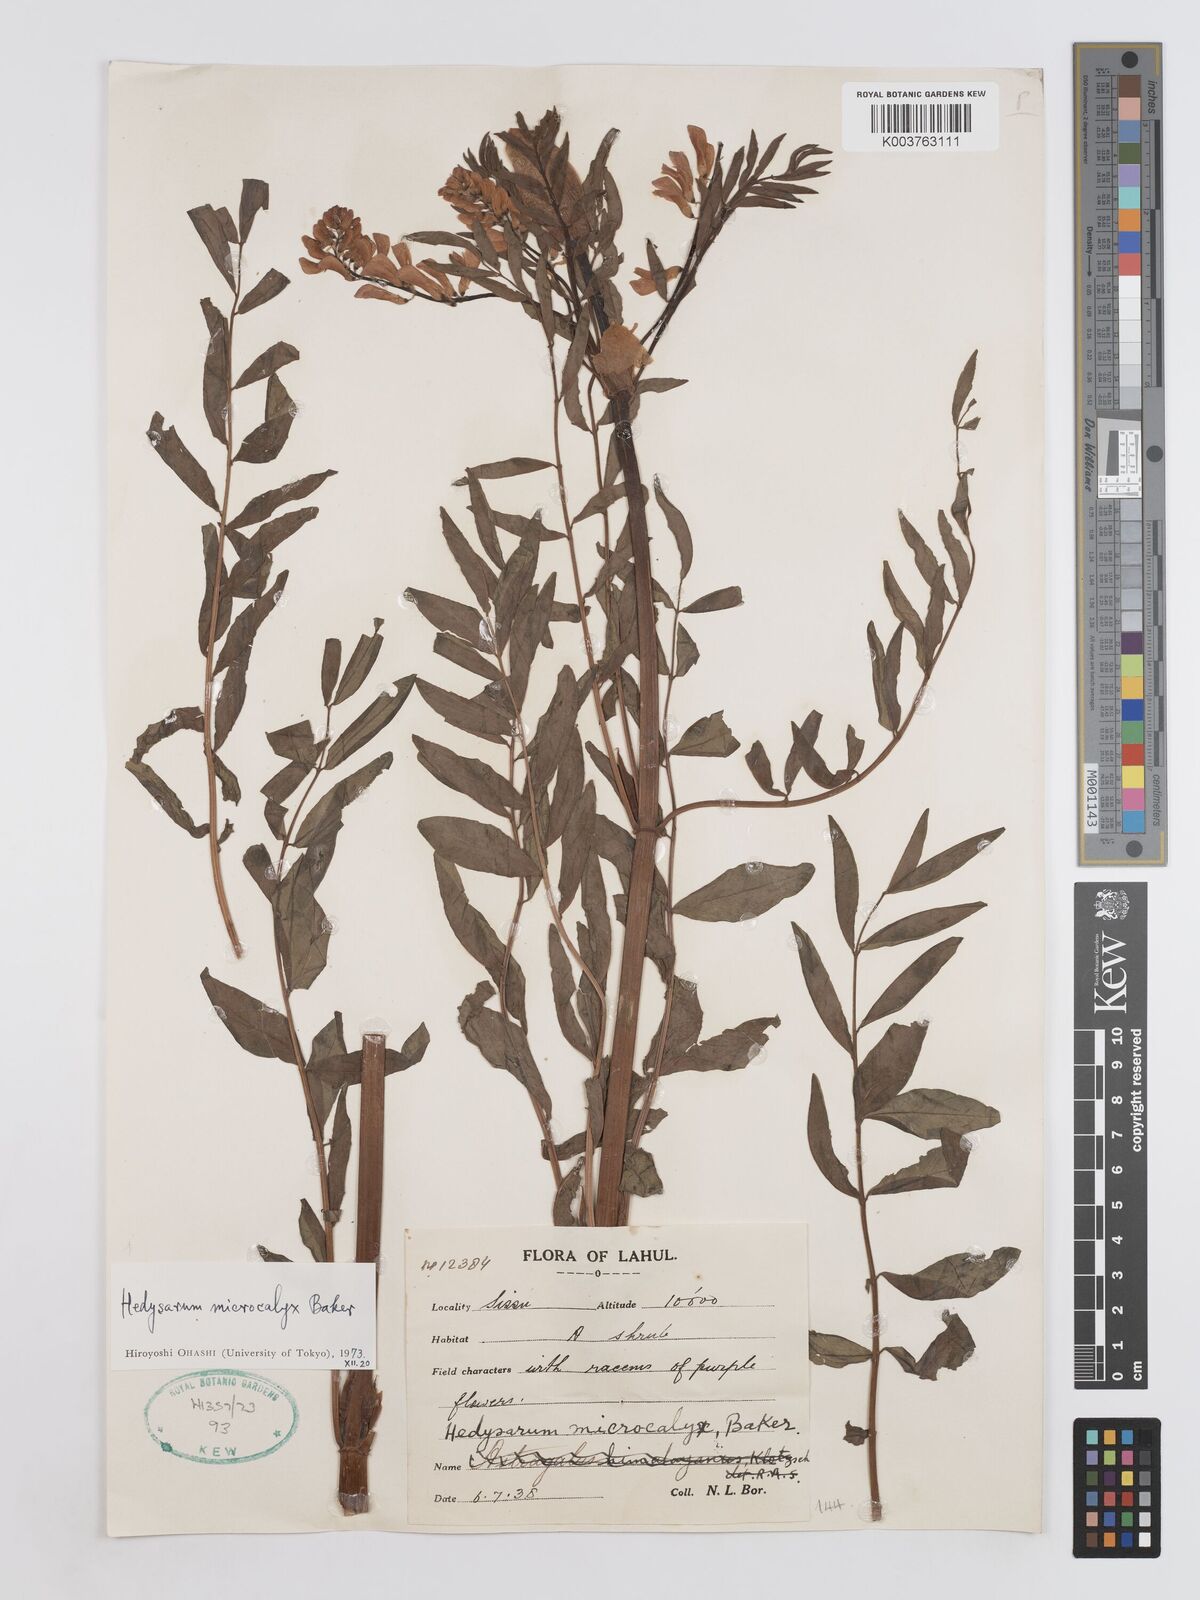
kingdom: Plantae
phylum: Tracheophyta
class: Magnoliopsida
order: Fabales
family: Fabaceae
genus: Hedysarum
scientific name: Hedysarum microcalyx
